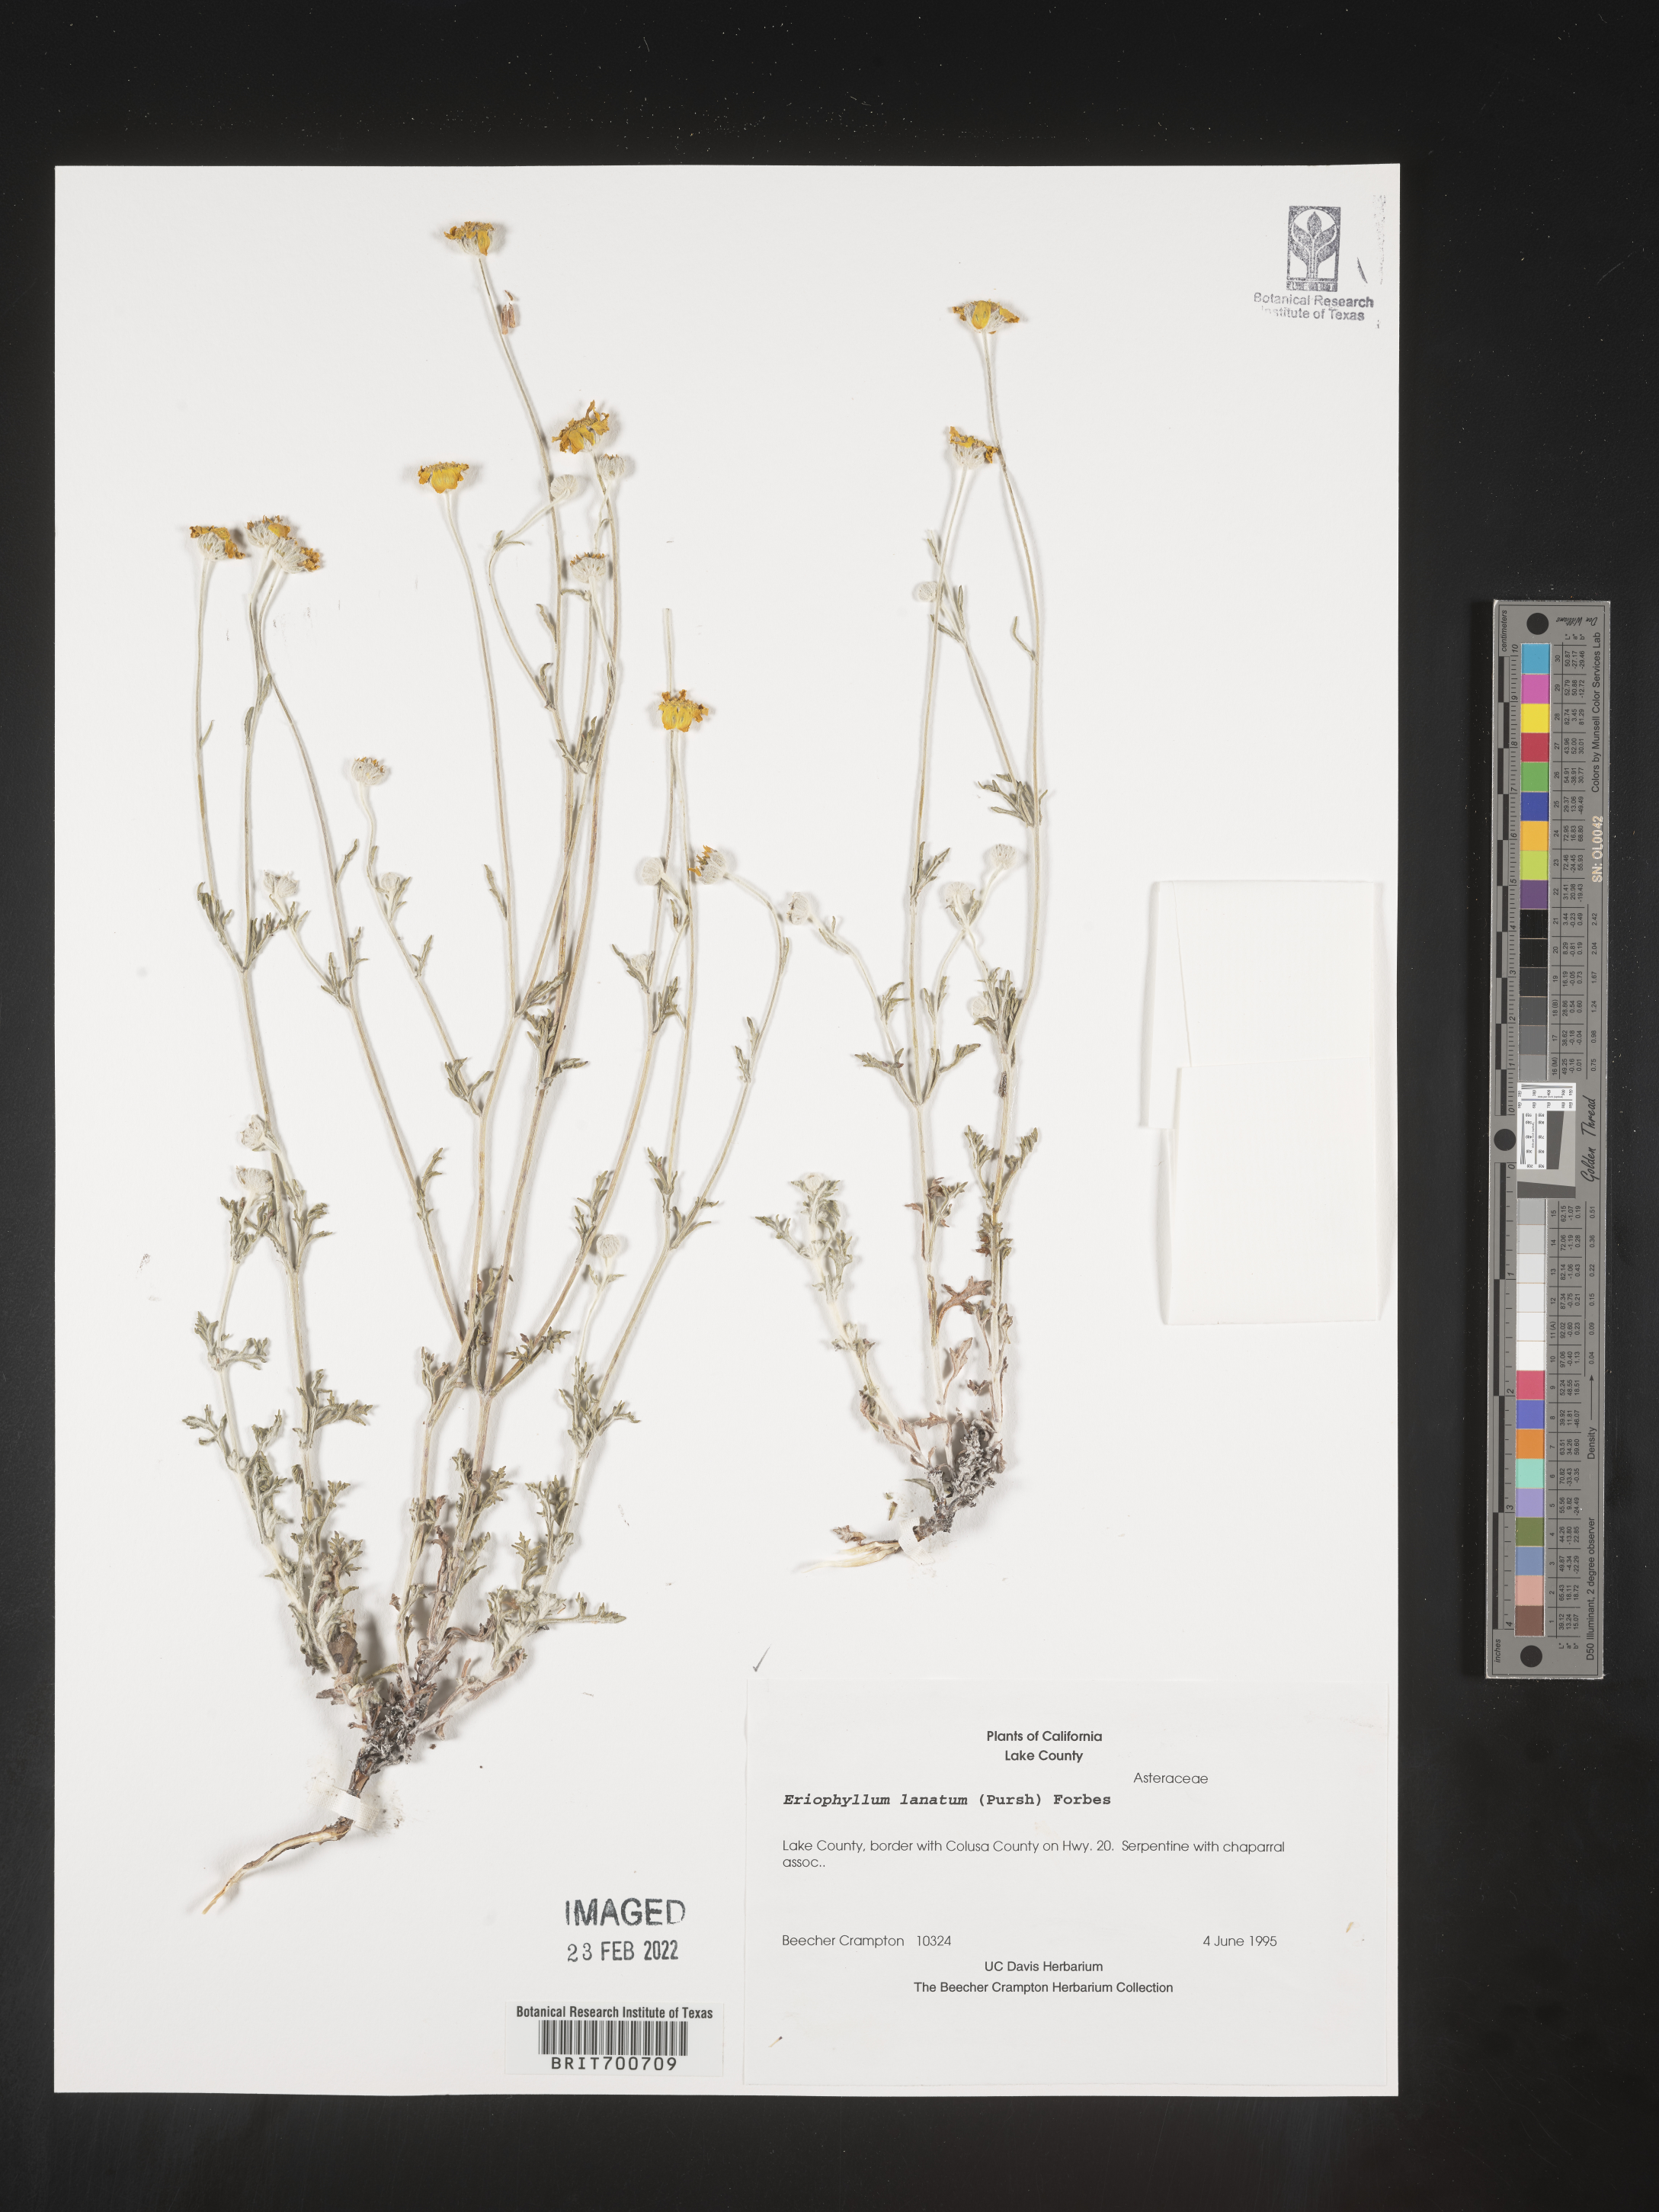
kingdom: Plantae
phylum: Tracheophyta
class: Magnoliopsida
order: Asterales
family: Asteraceae
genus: Eriophyllum
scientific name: Eriophyllum lanatum
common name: Common woolly-sunflower
